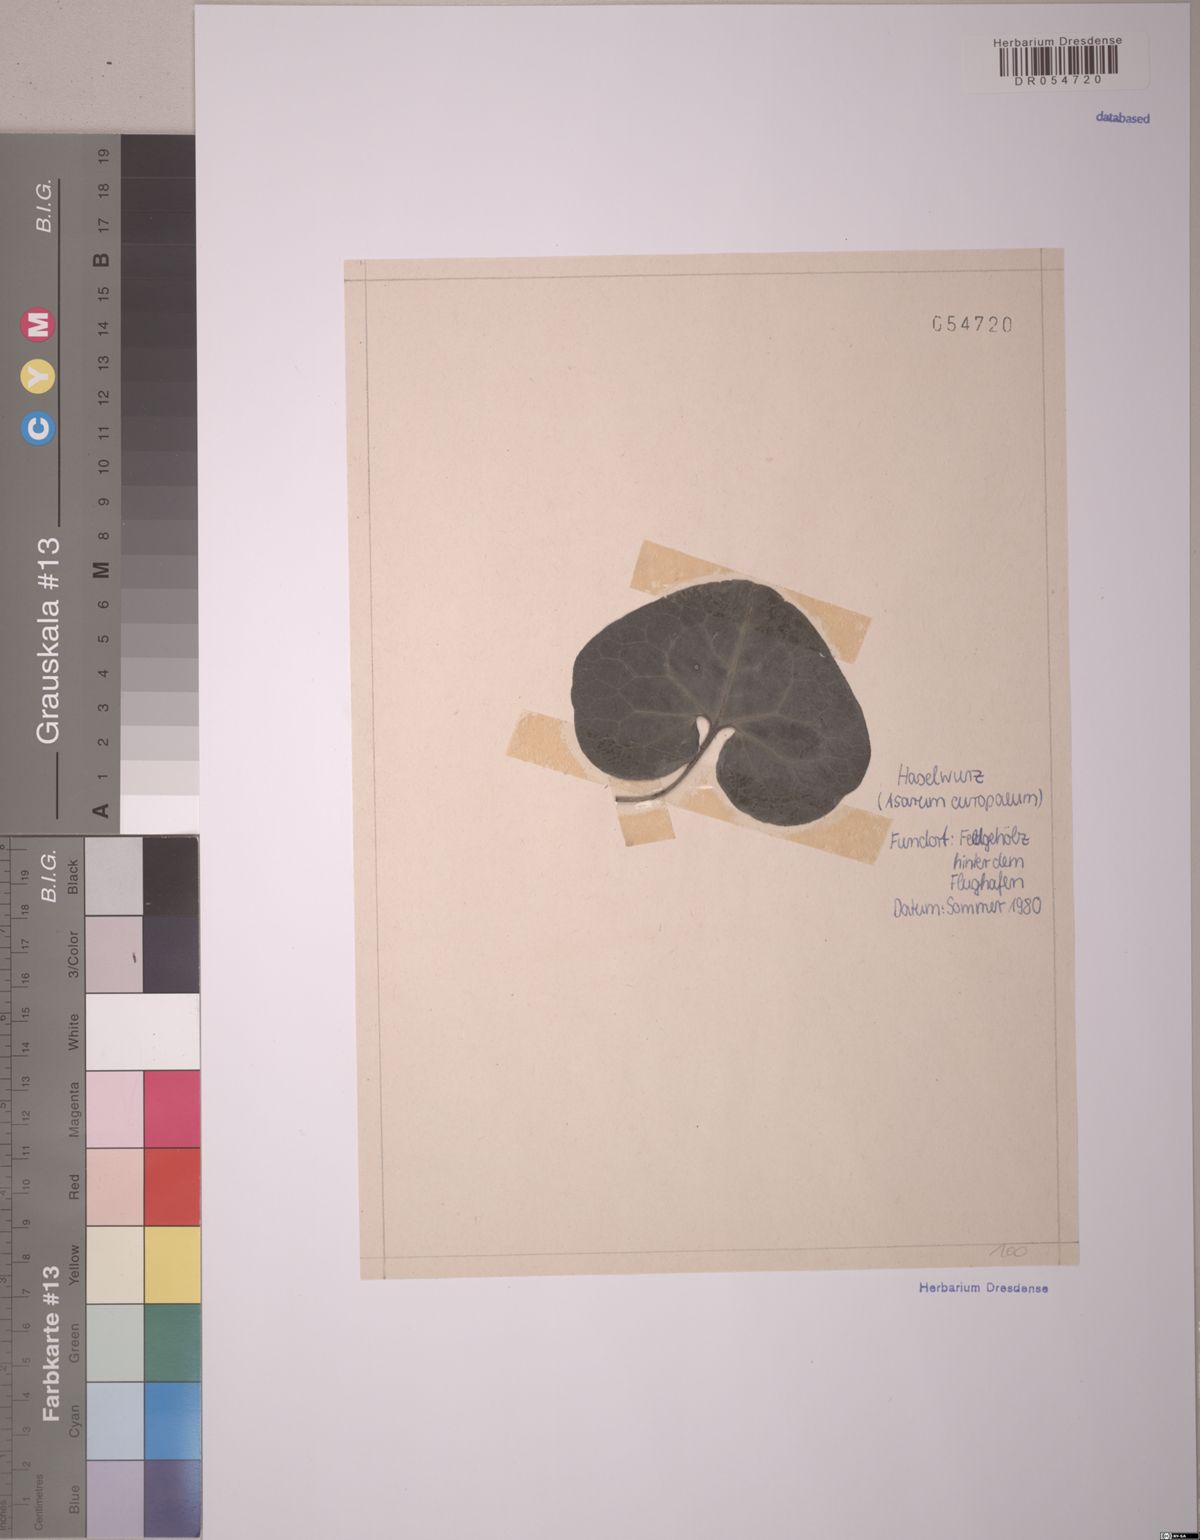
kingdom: Plantae
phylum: Tracheophyta
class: Magnoliopsida
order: Piperales
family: Aristolochiaceae
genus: Asarum
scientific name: Asarum europaeum
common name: Asarabacca
